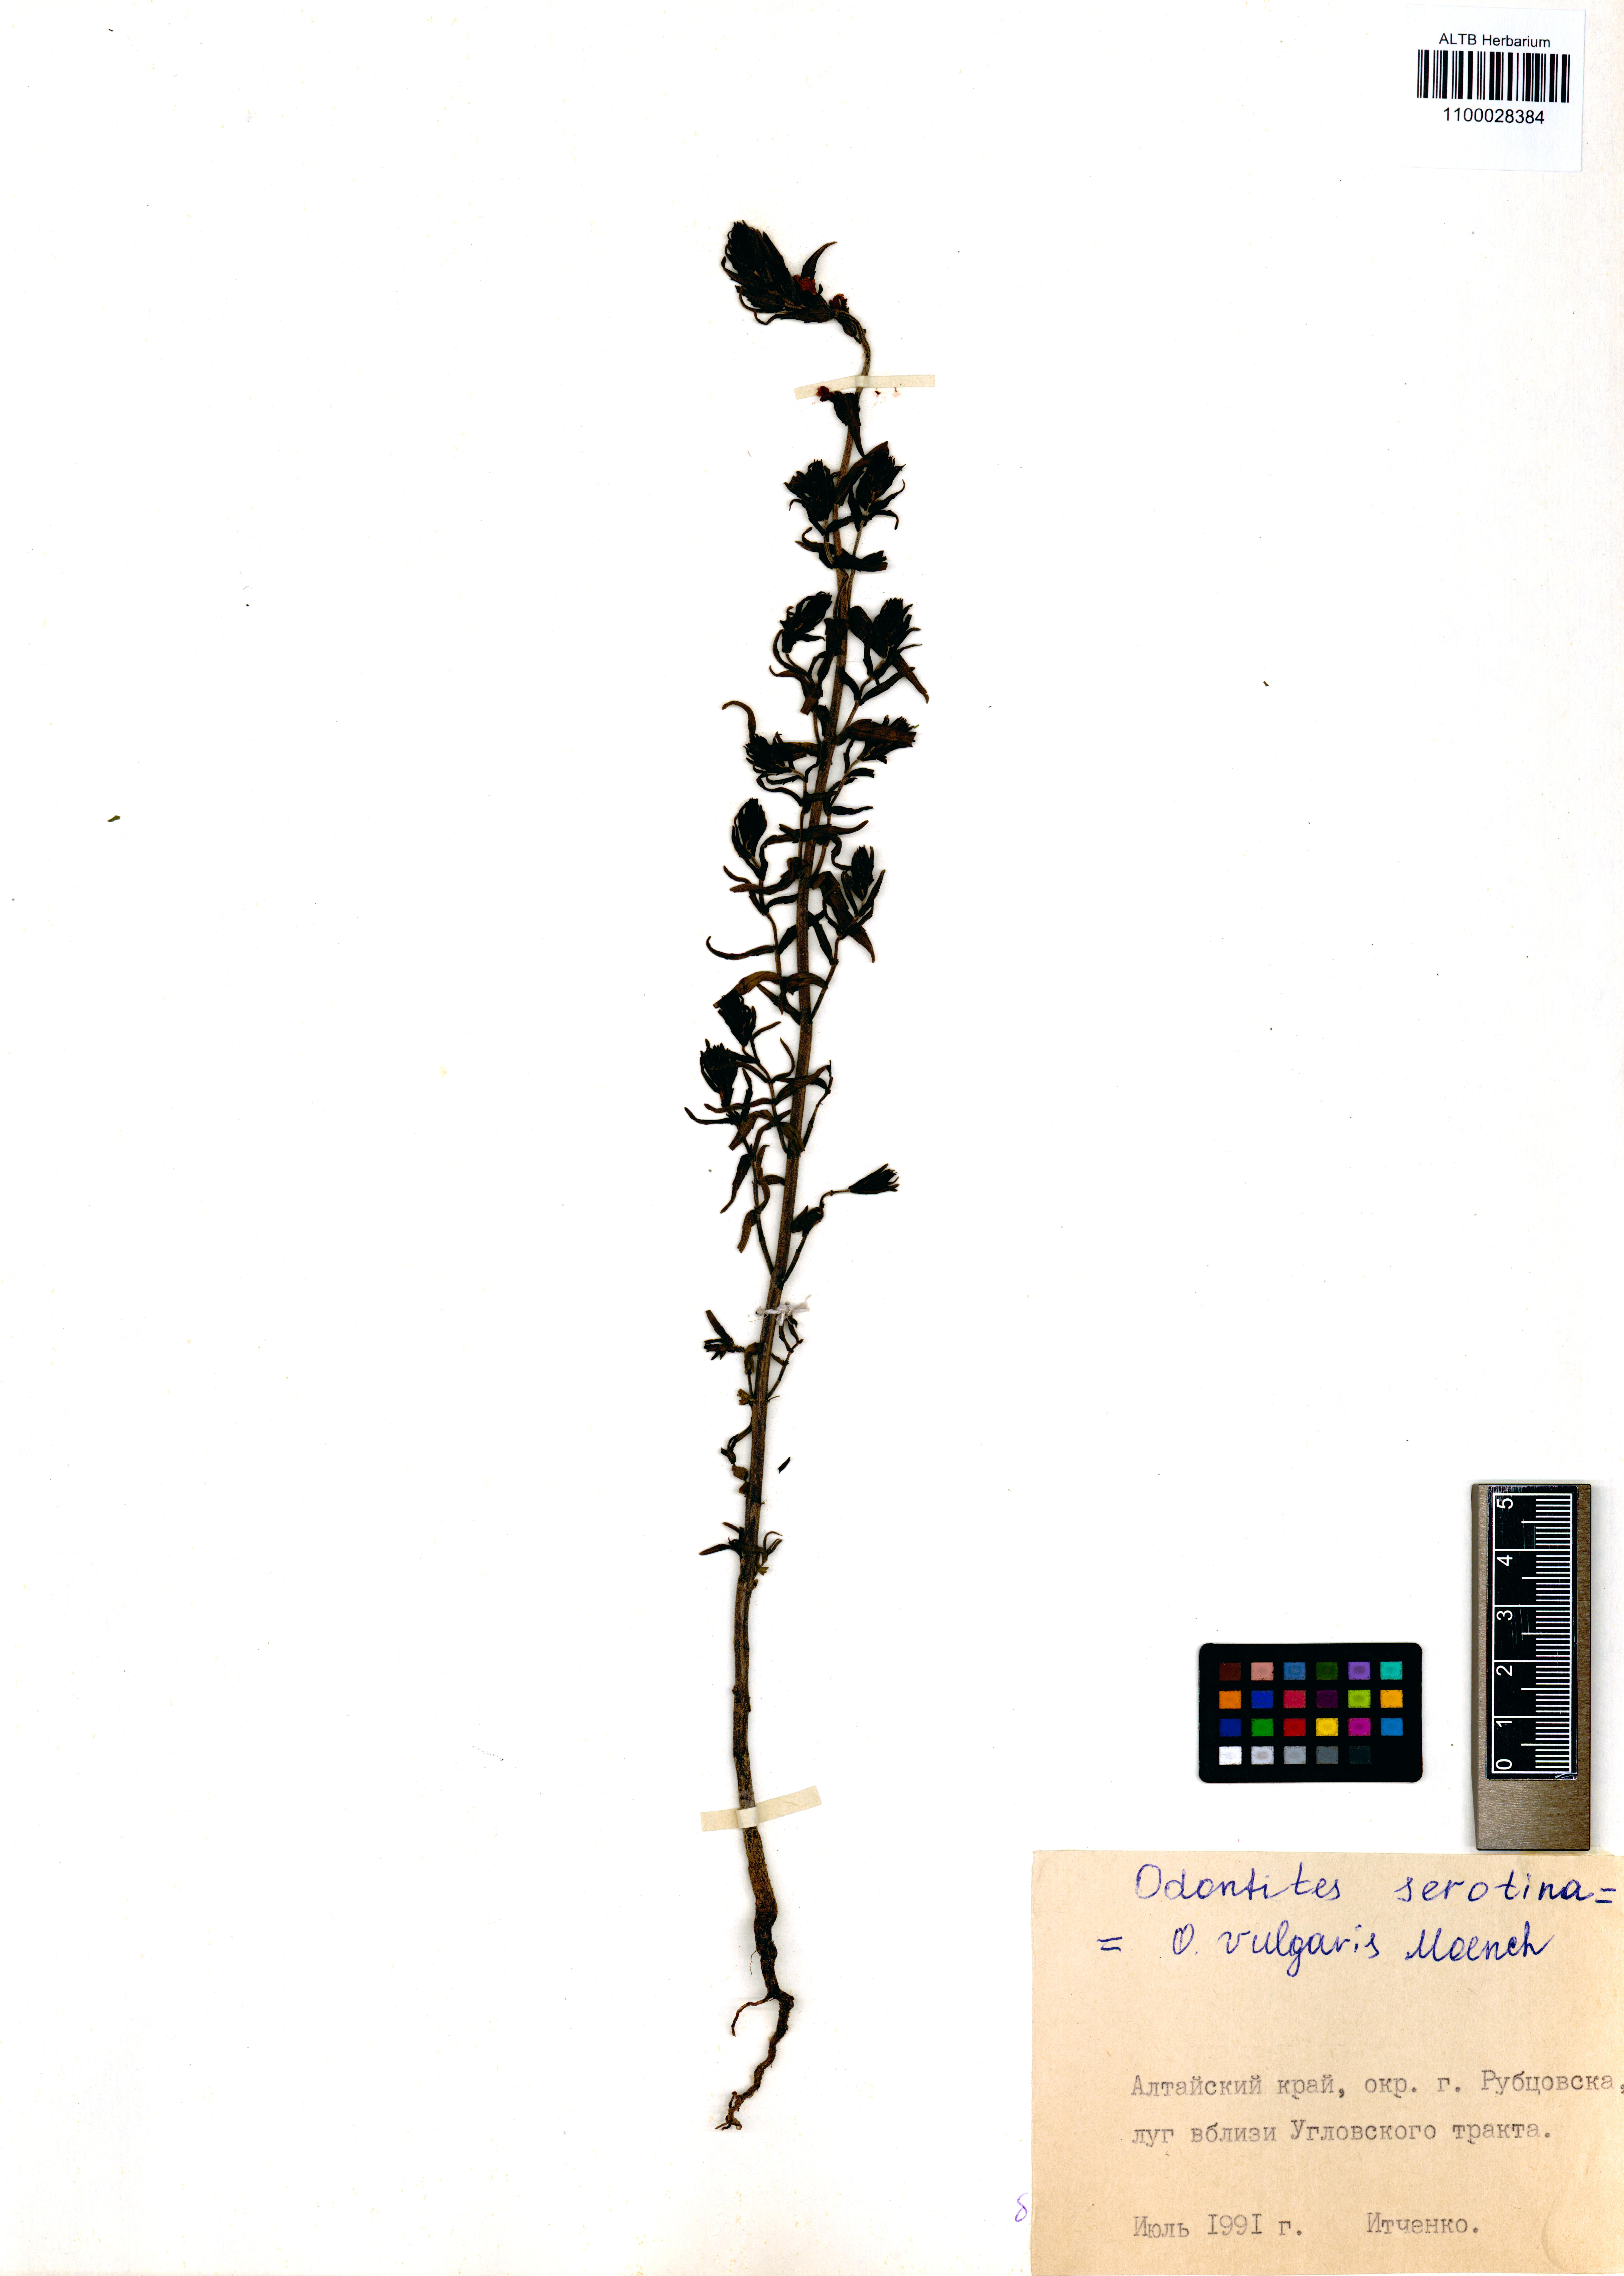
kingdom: Plantae
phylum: Tracheophyta
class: Magnoliopsida
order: Lamiales
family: Orobanchaceae
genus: Odontites
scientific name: Odontites vulgaris
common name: Broomrape
